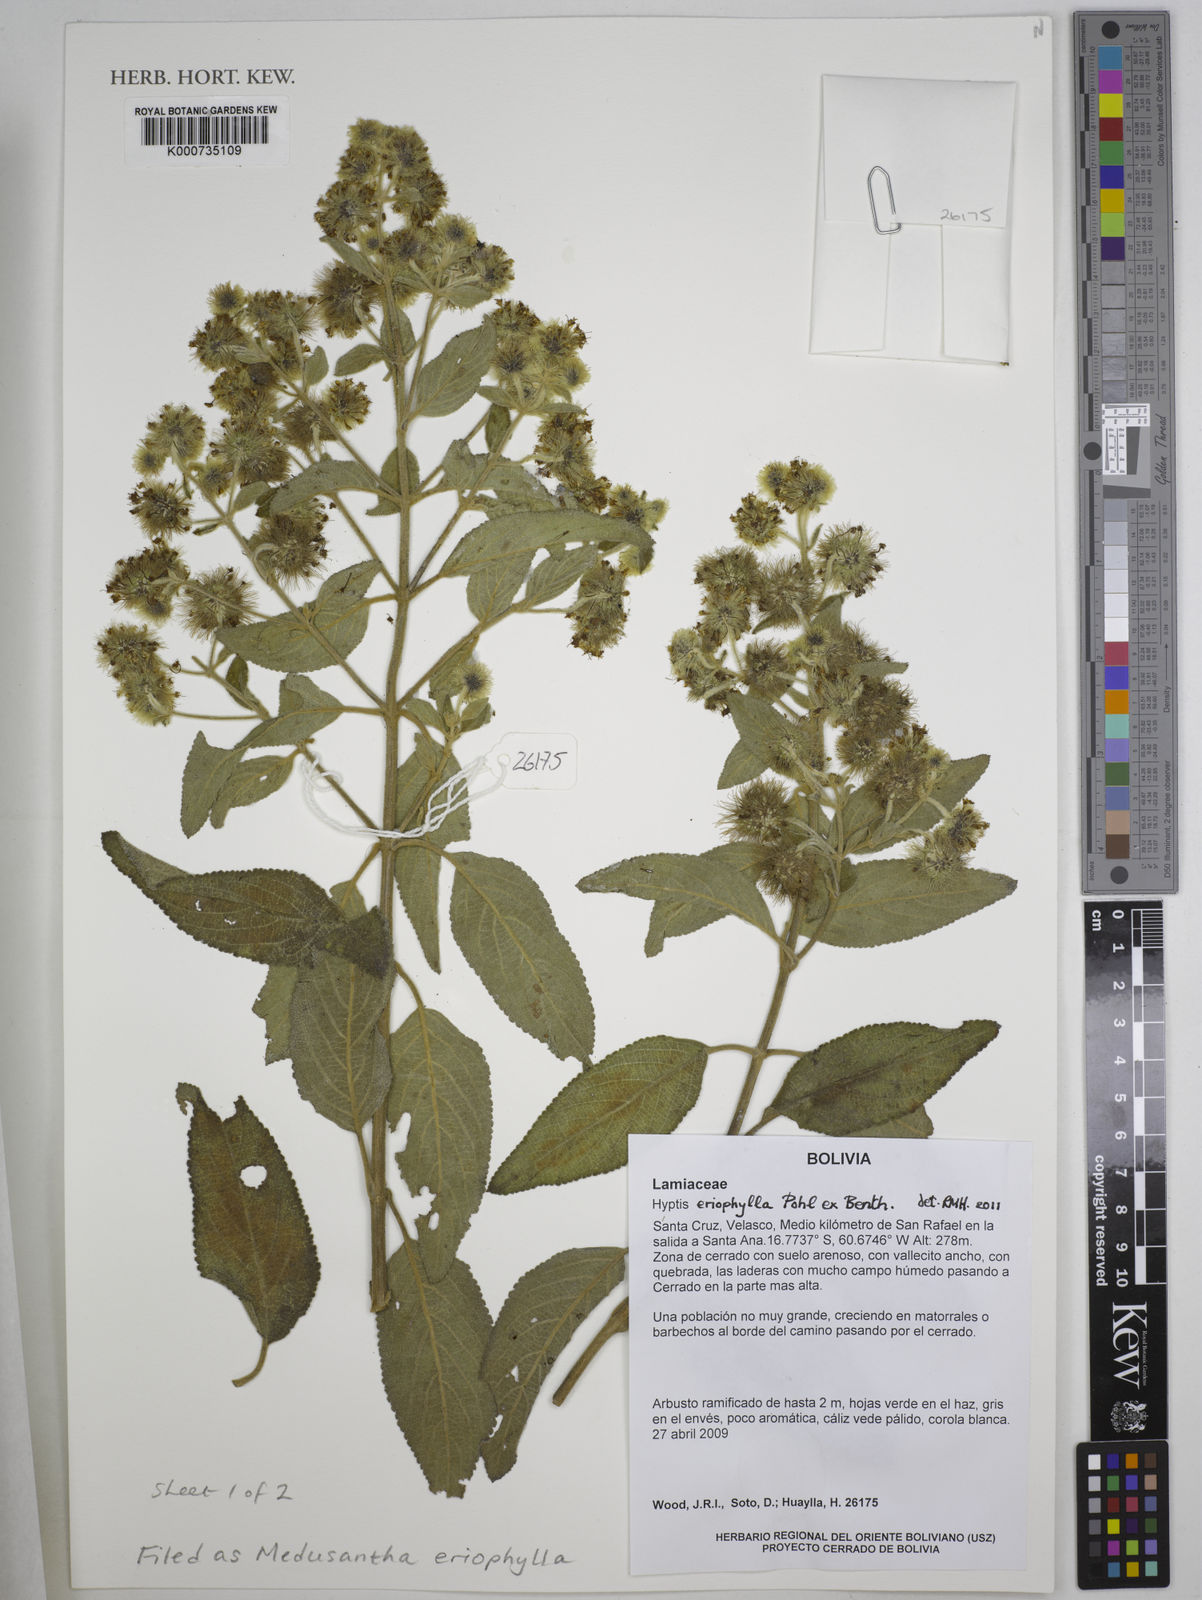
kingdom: Plantae
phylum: Tracheophyta
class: Magnoliopsida
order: Lamiales
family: Lamiaceae
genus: Medusantha
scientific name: Medusantha eriophylla
